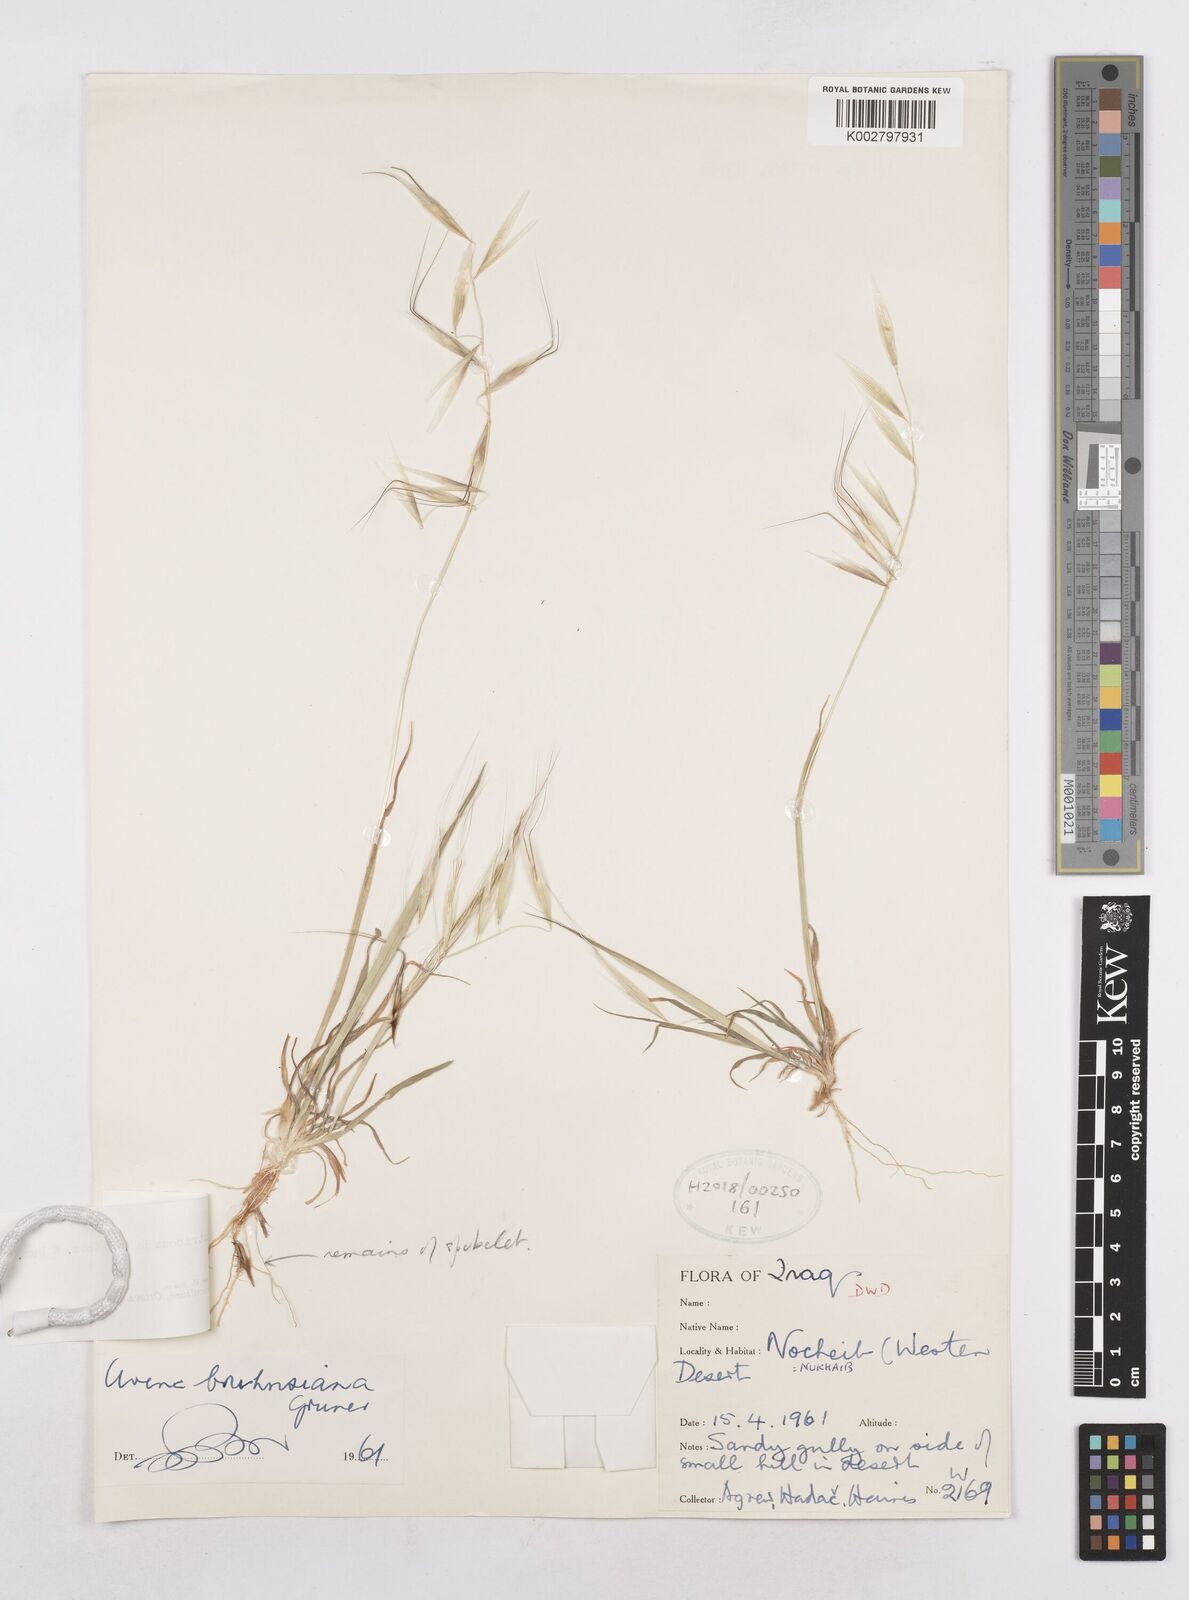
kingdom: Plantae
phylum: Tracheophyta
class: Liliopsida
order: Poales
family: Poaceae
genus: Avena
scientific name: Avena ventricosa
